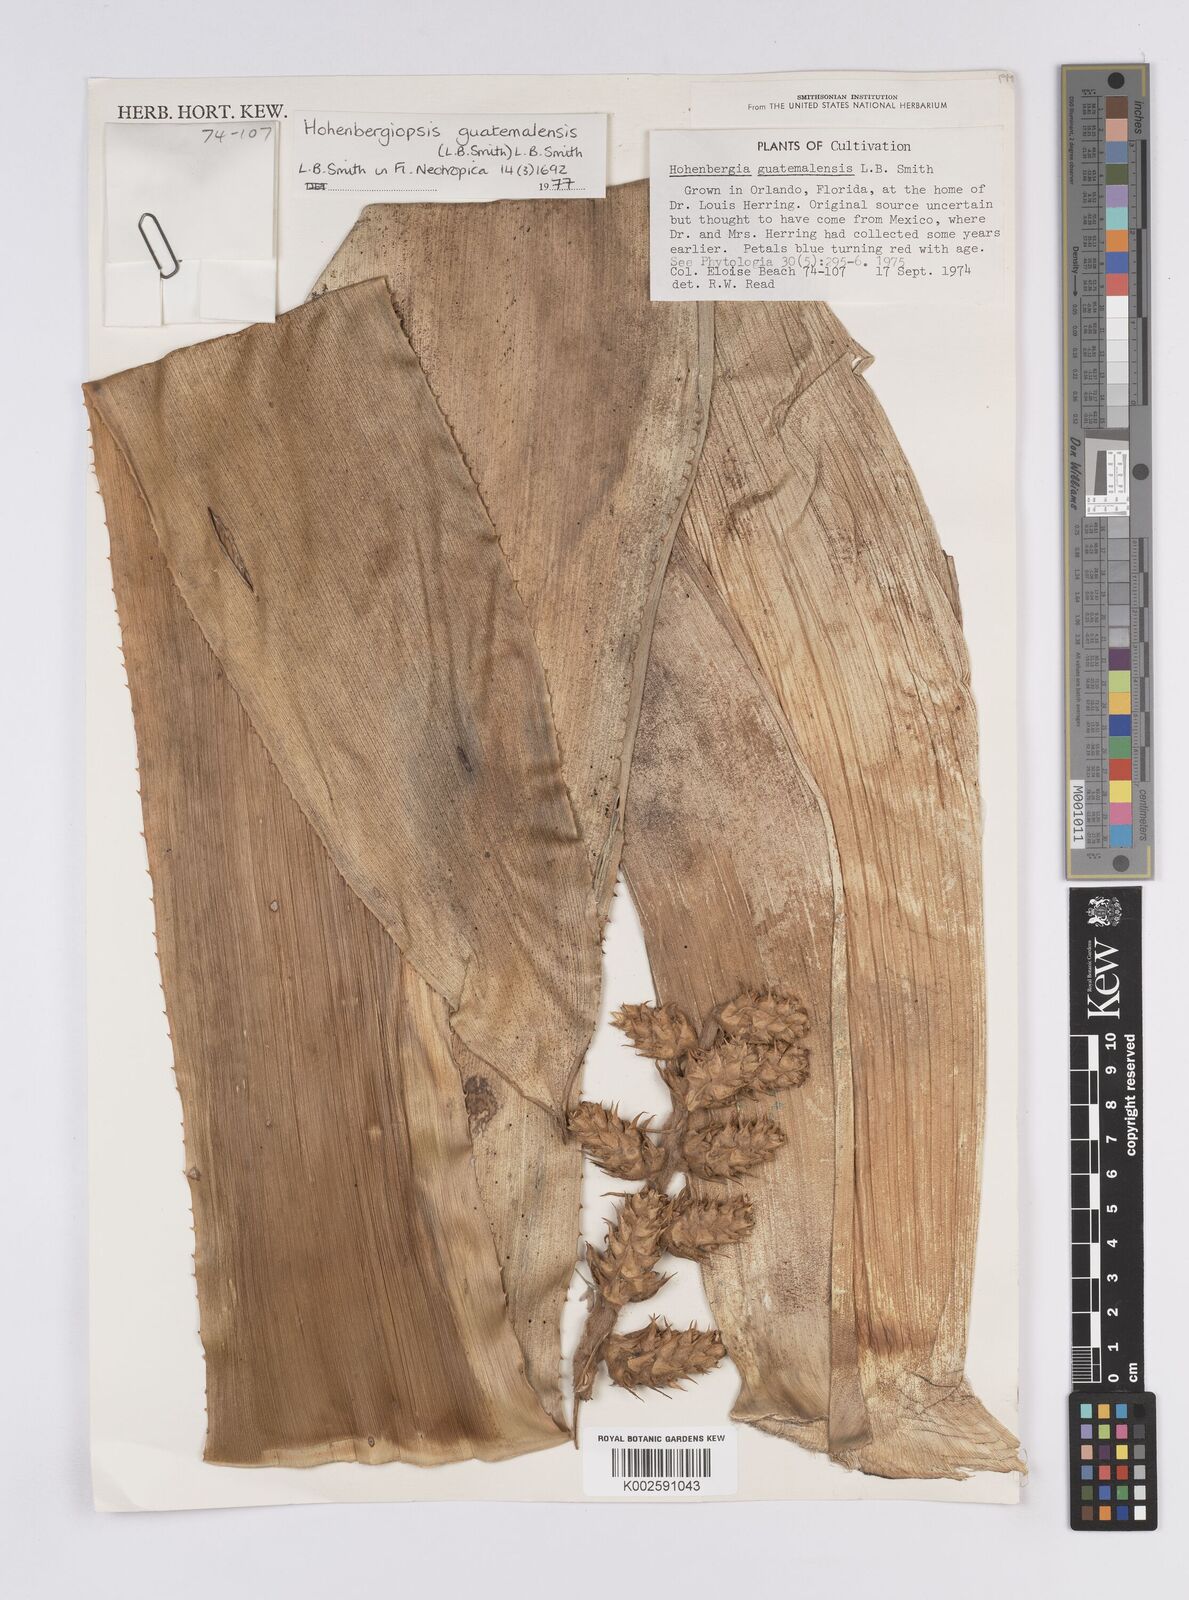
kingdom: Plantae
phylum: Tracheophyta
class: Liliopsida
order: Poales
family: Bromeliaceae
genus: Hohenbergiopsis
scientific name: Hohenbergiopsis guatemalensis
